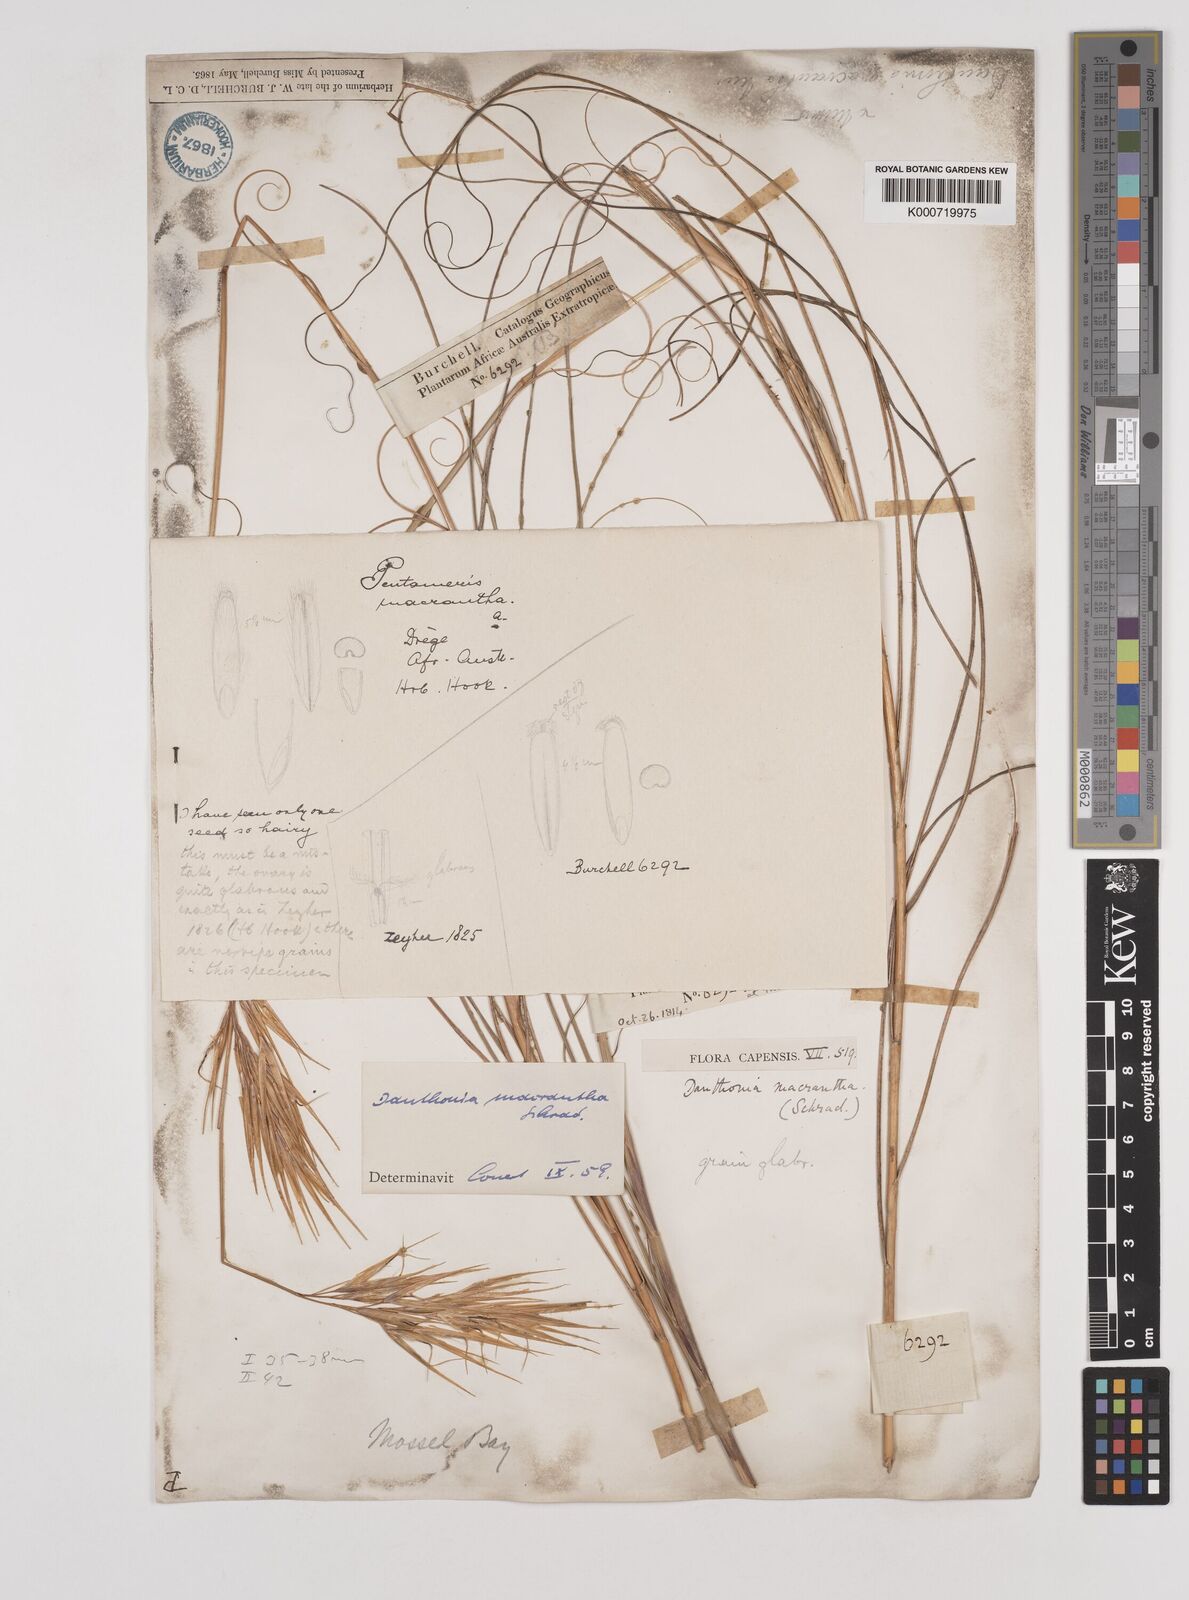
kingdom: Plantae
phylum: Tracheophyta
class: Liliopsida
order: Poales
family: Poaceae
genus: Pseudopentameris
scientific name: Pseudopentameris macrantha
